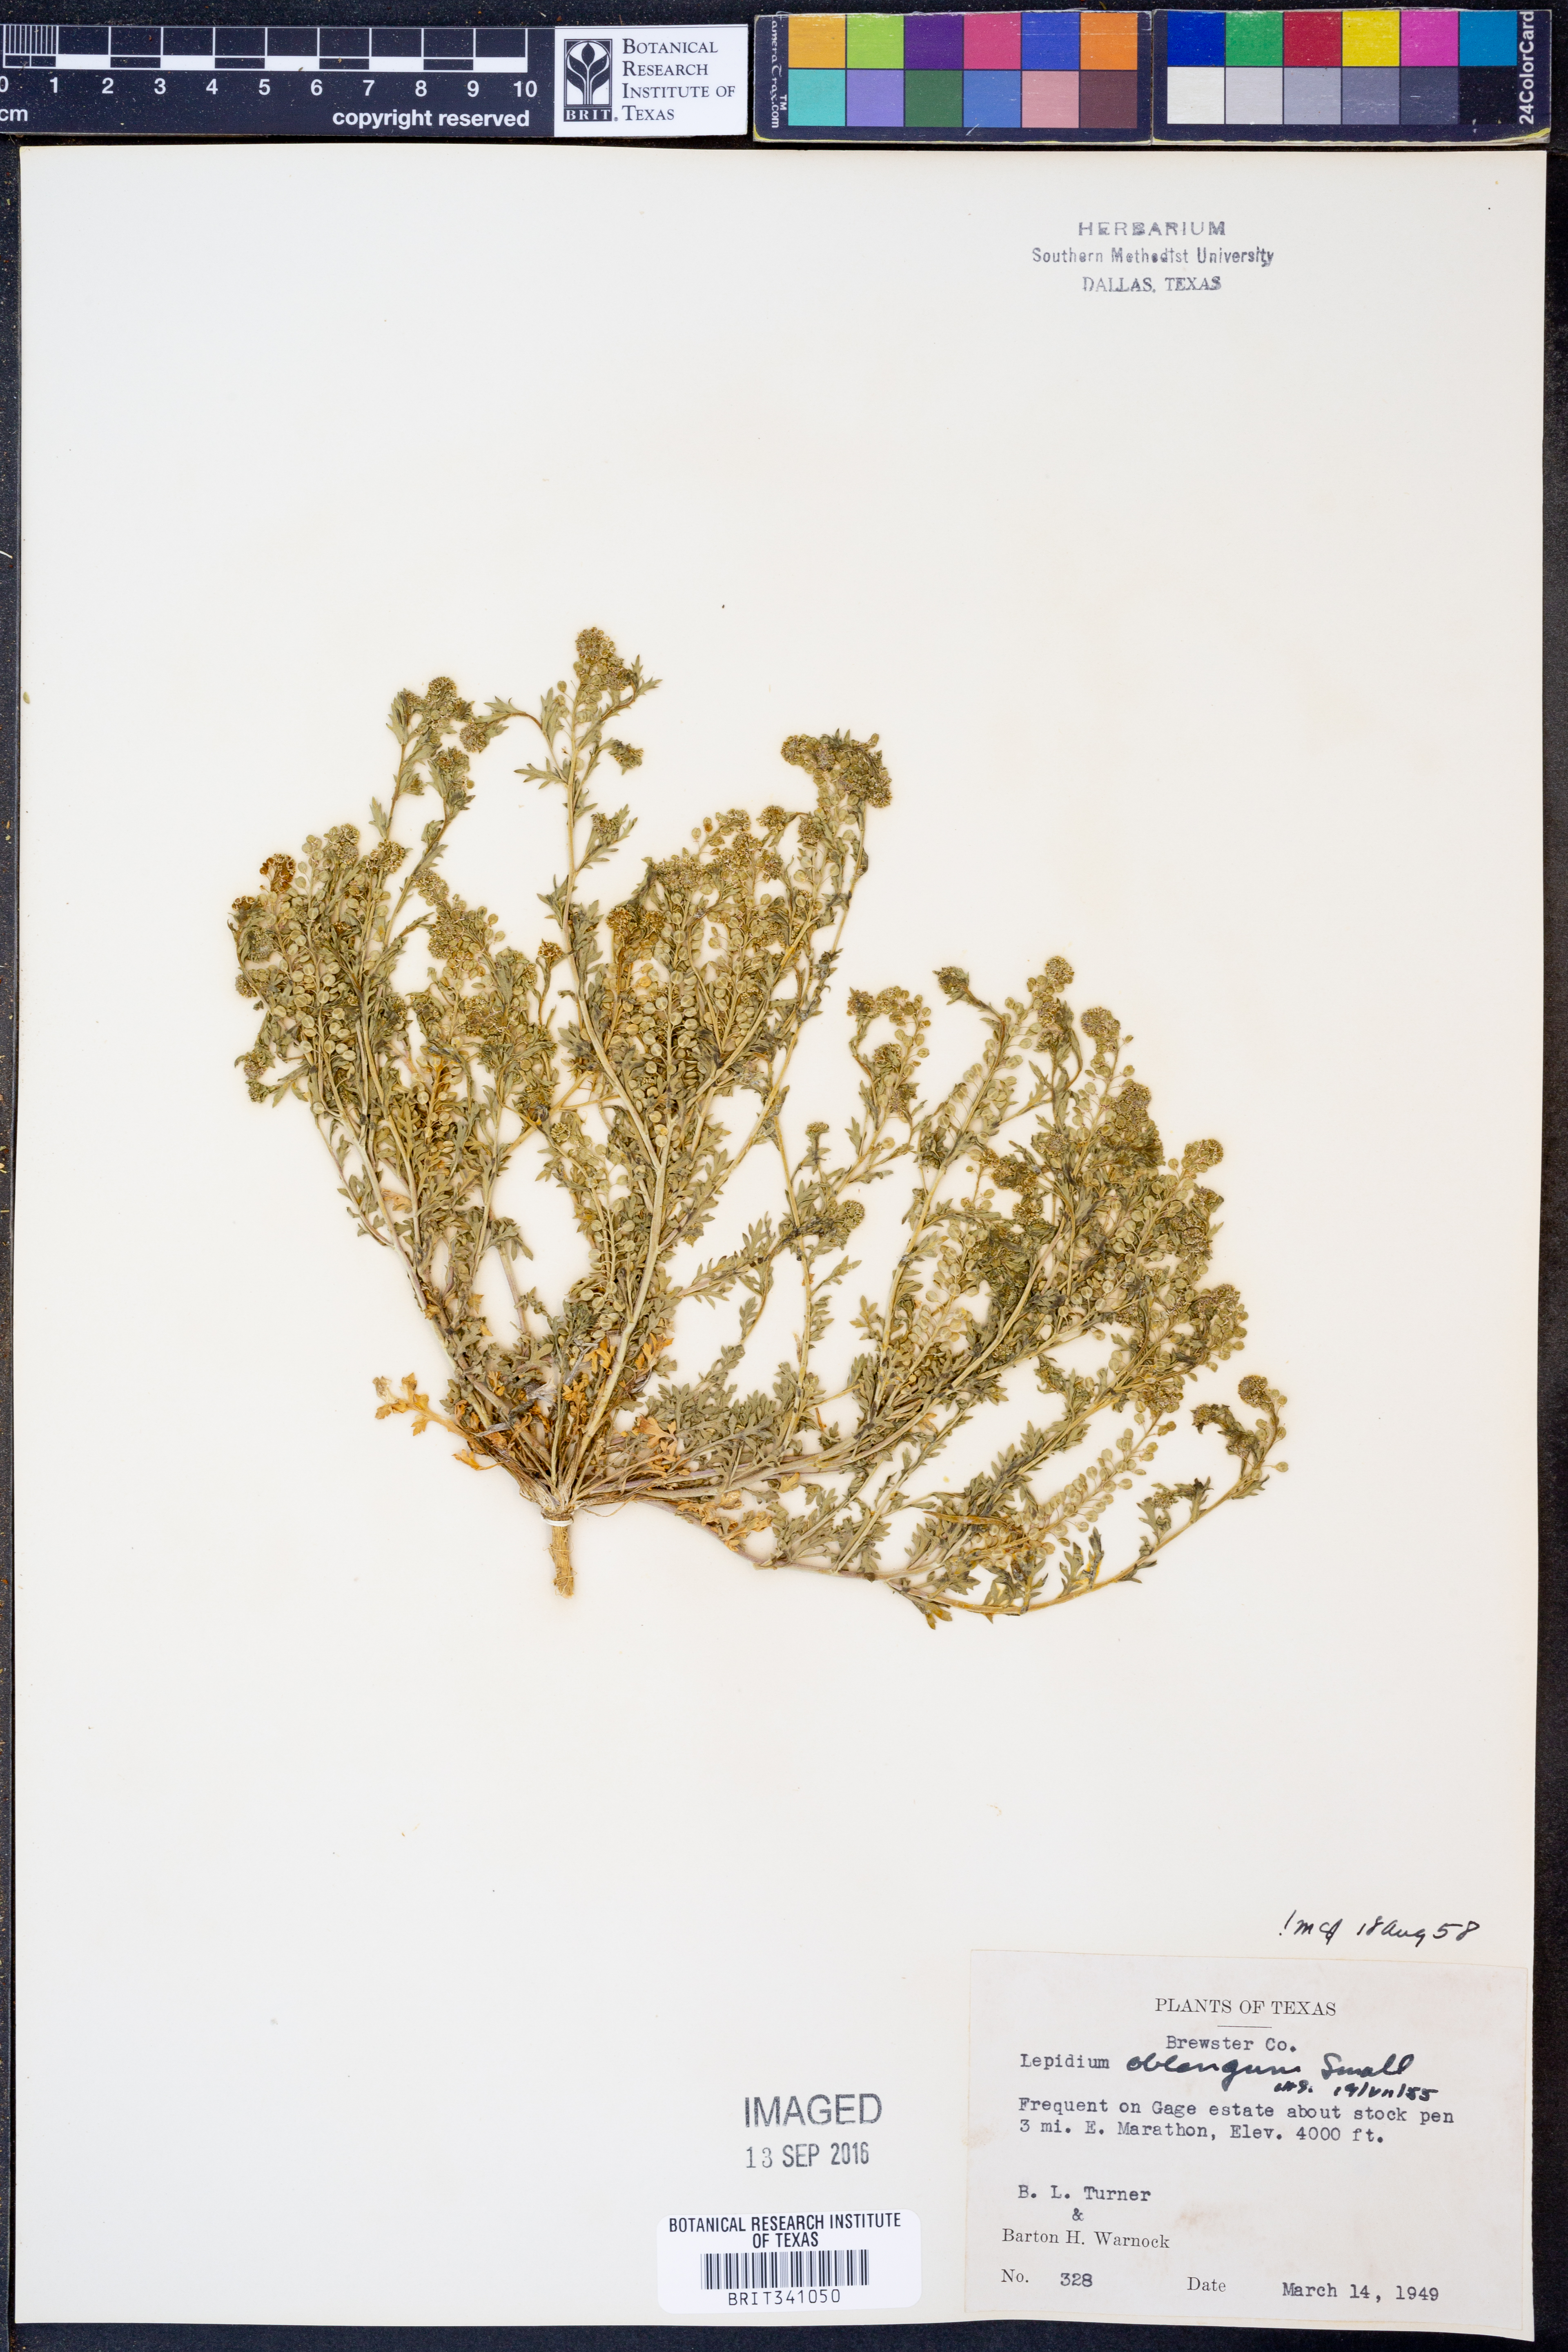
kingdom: Plantae
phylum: Tracheophyta
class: Magnoliopsida
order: Brassicales
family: Brassicaceae
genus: Lepidium
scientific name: Lepidium oblongum
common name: Veiny pepperweed
